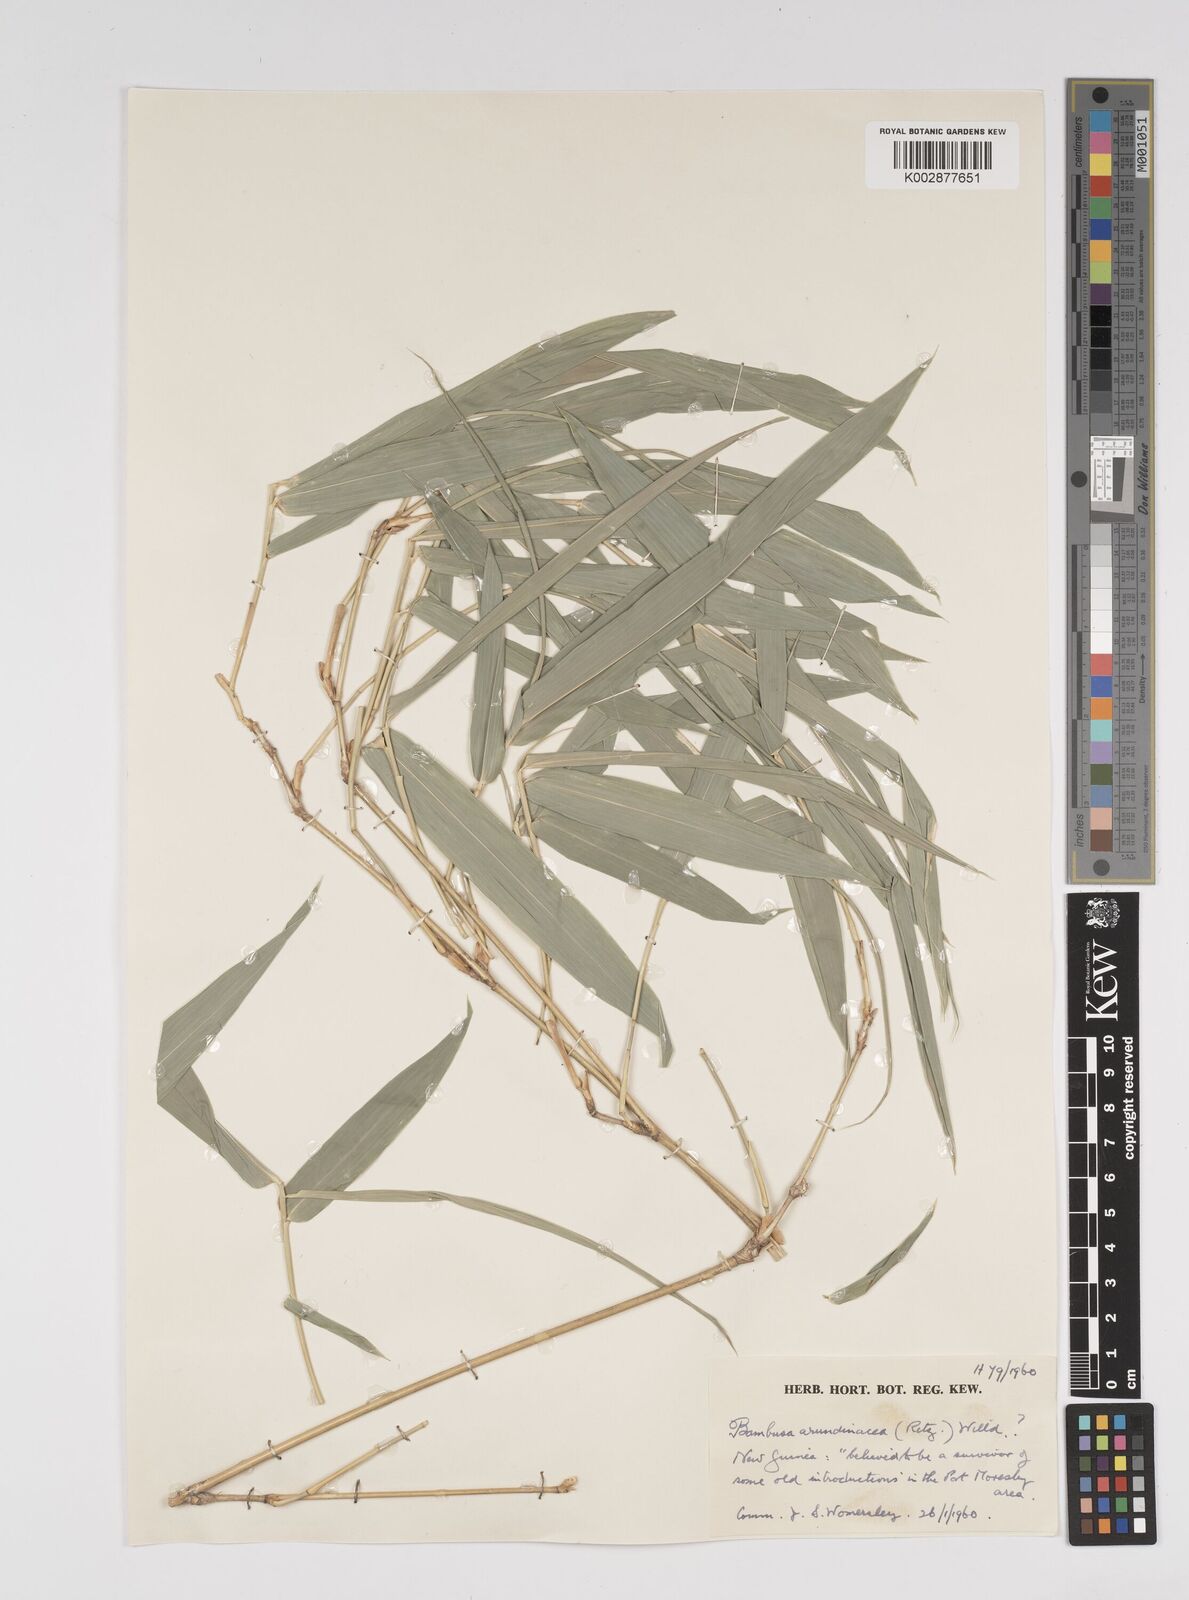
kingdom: Plantae
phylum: Tracheophyta
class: Liliopsida
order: Poales
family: Poaceae
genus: Bambusa
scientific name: Bambusa
